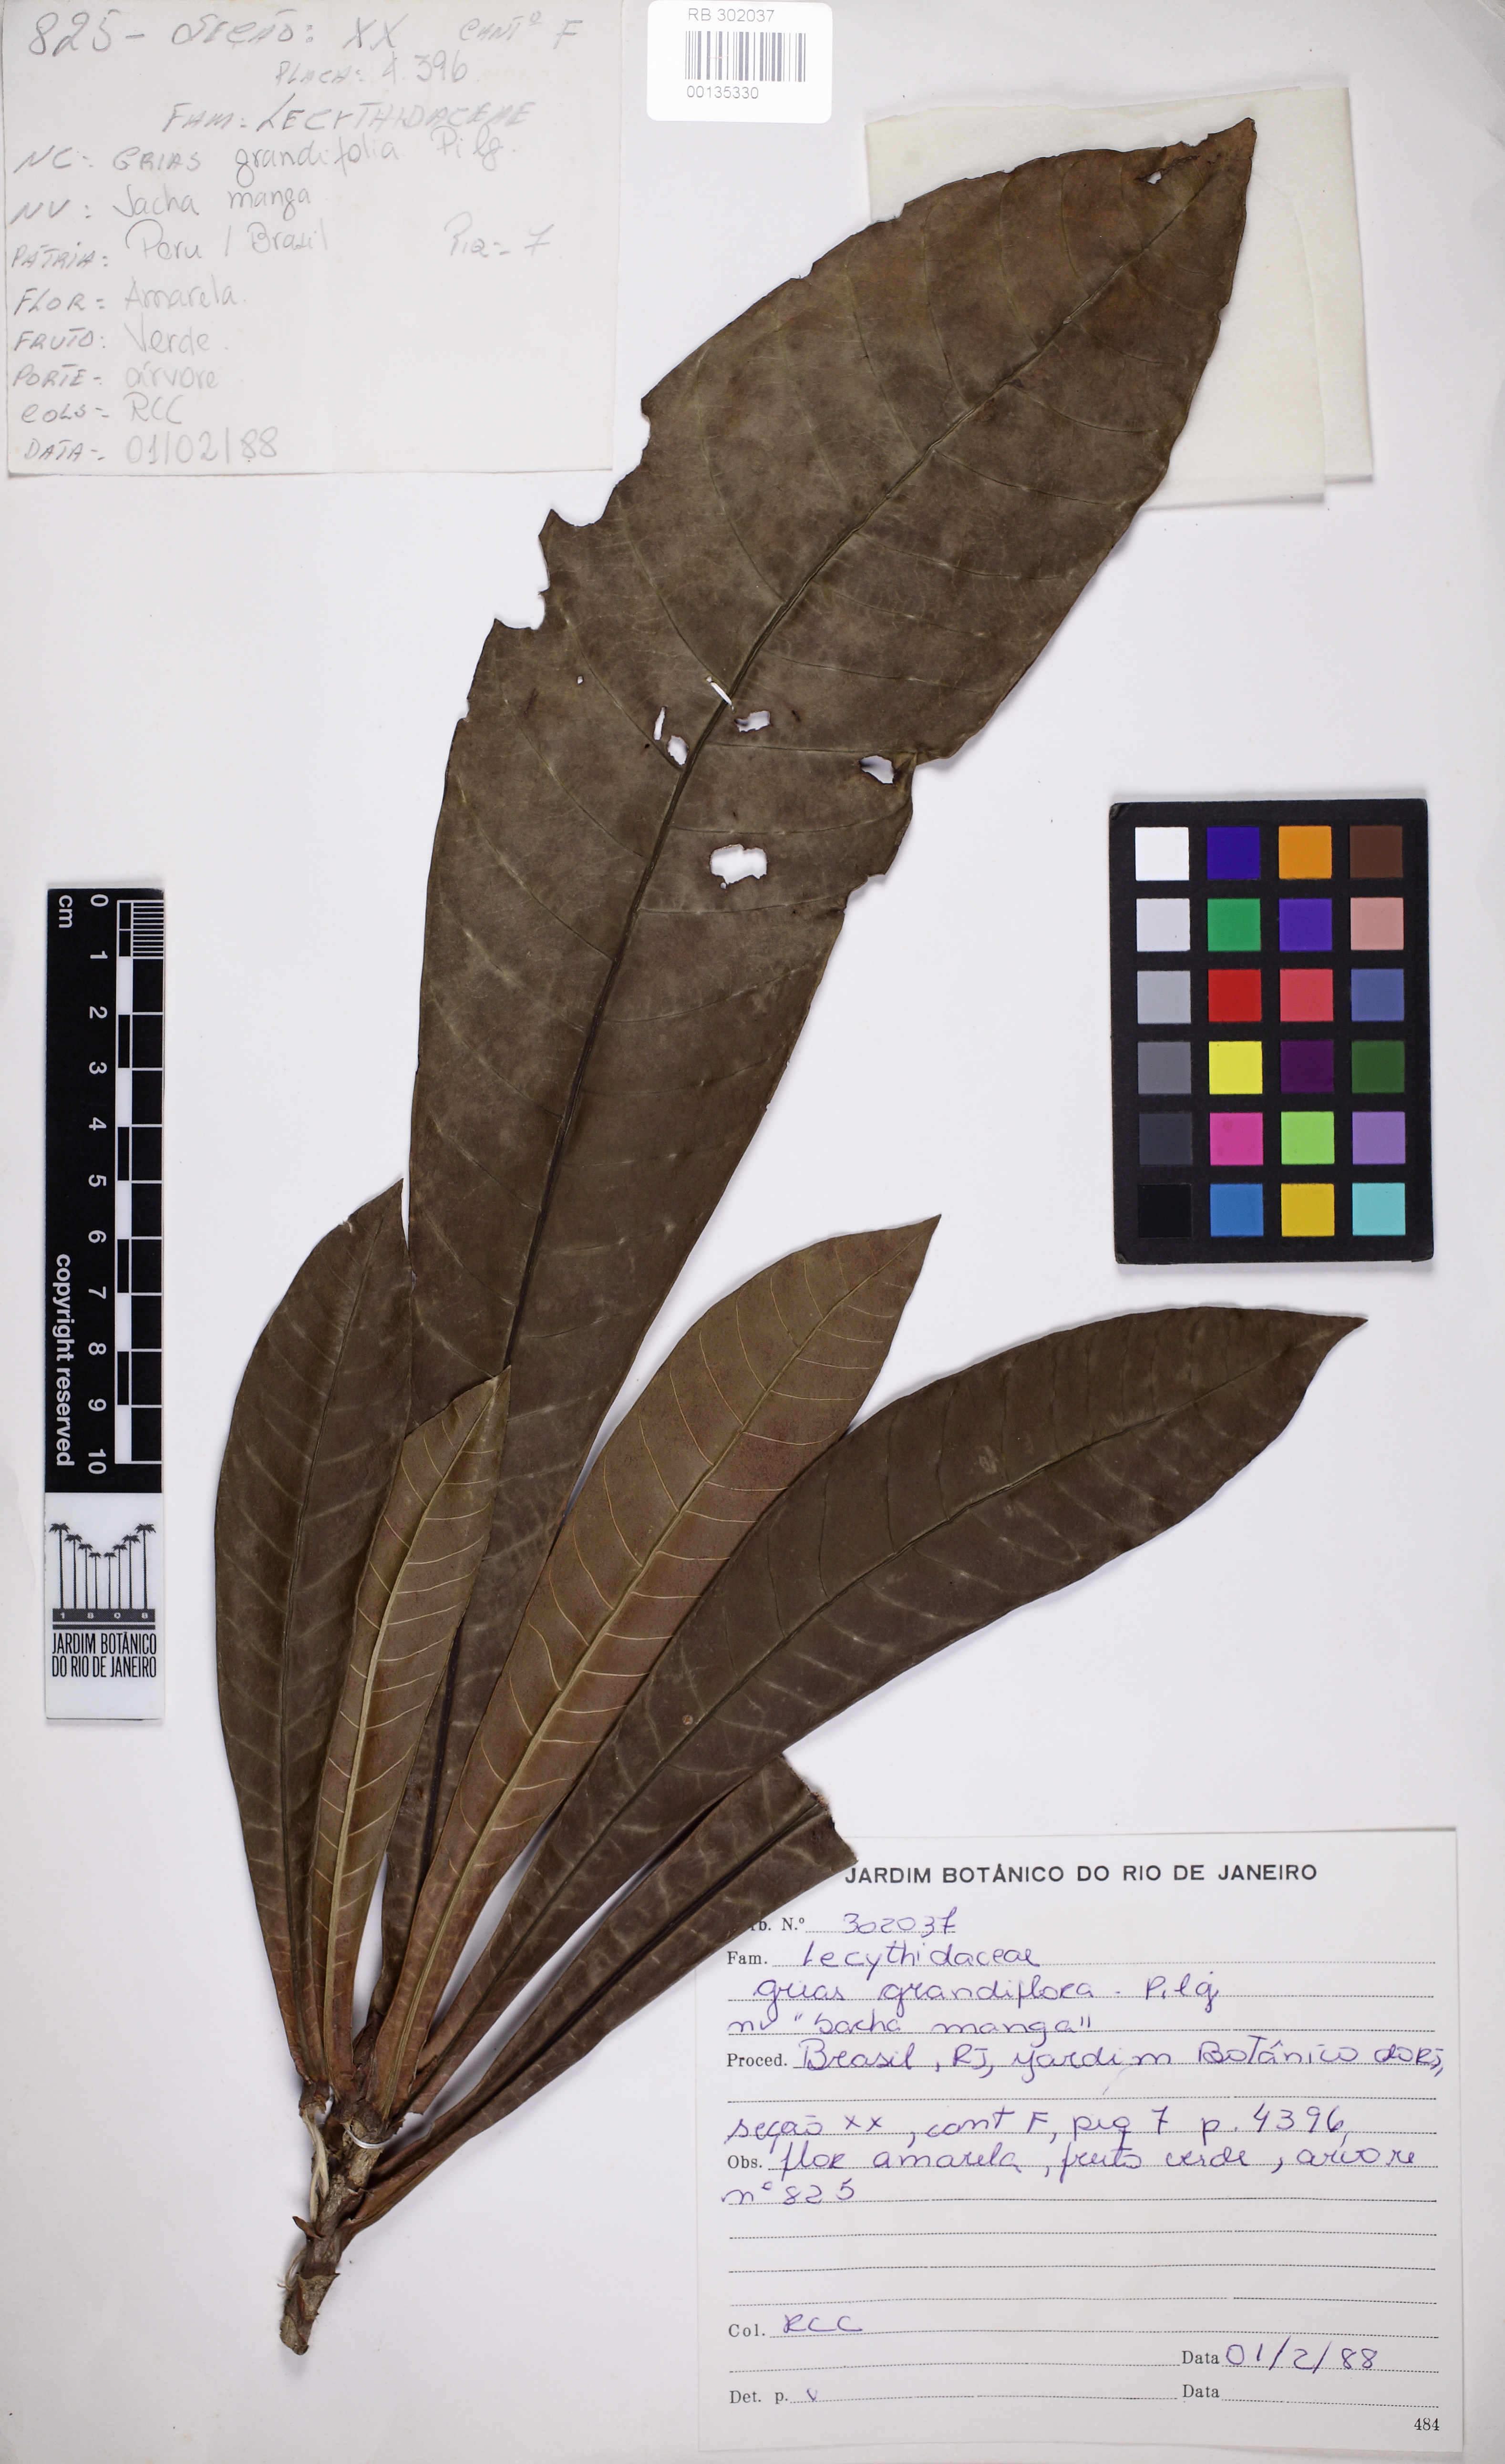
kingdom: Plantae
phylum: Tracheophyta
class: Magnoliopsida
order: Ericales
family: Lecythidaceae
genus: Grias
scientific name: Grias peruviana
